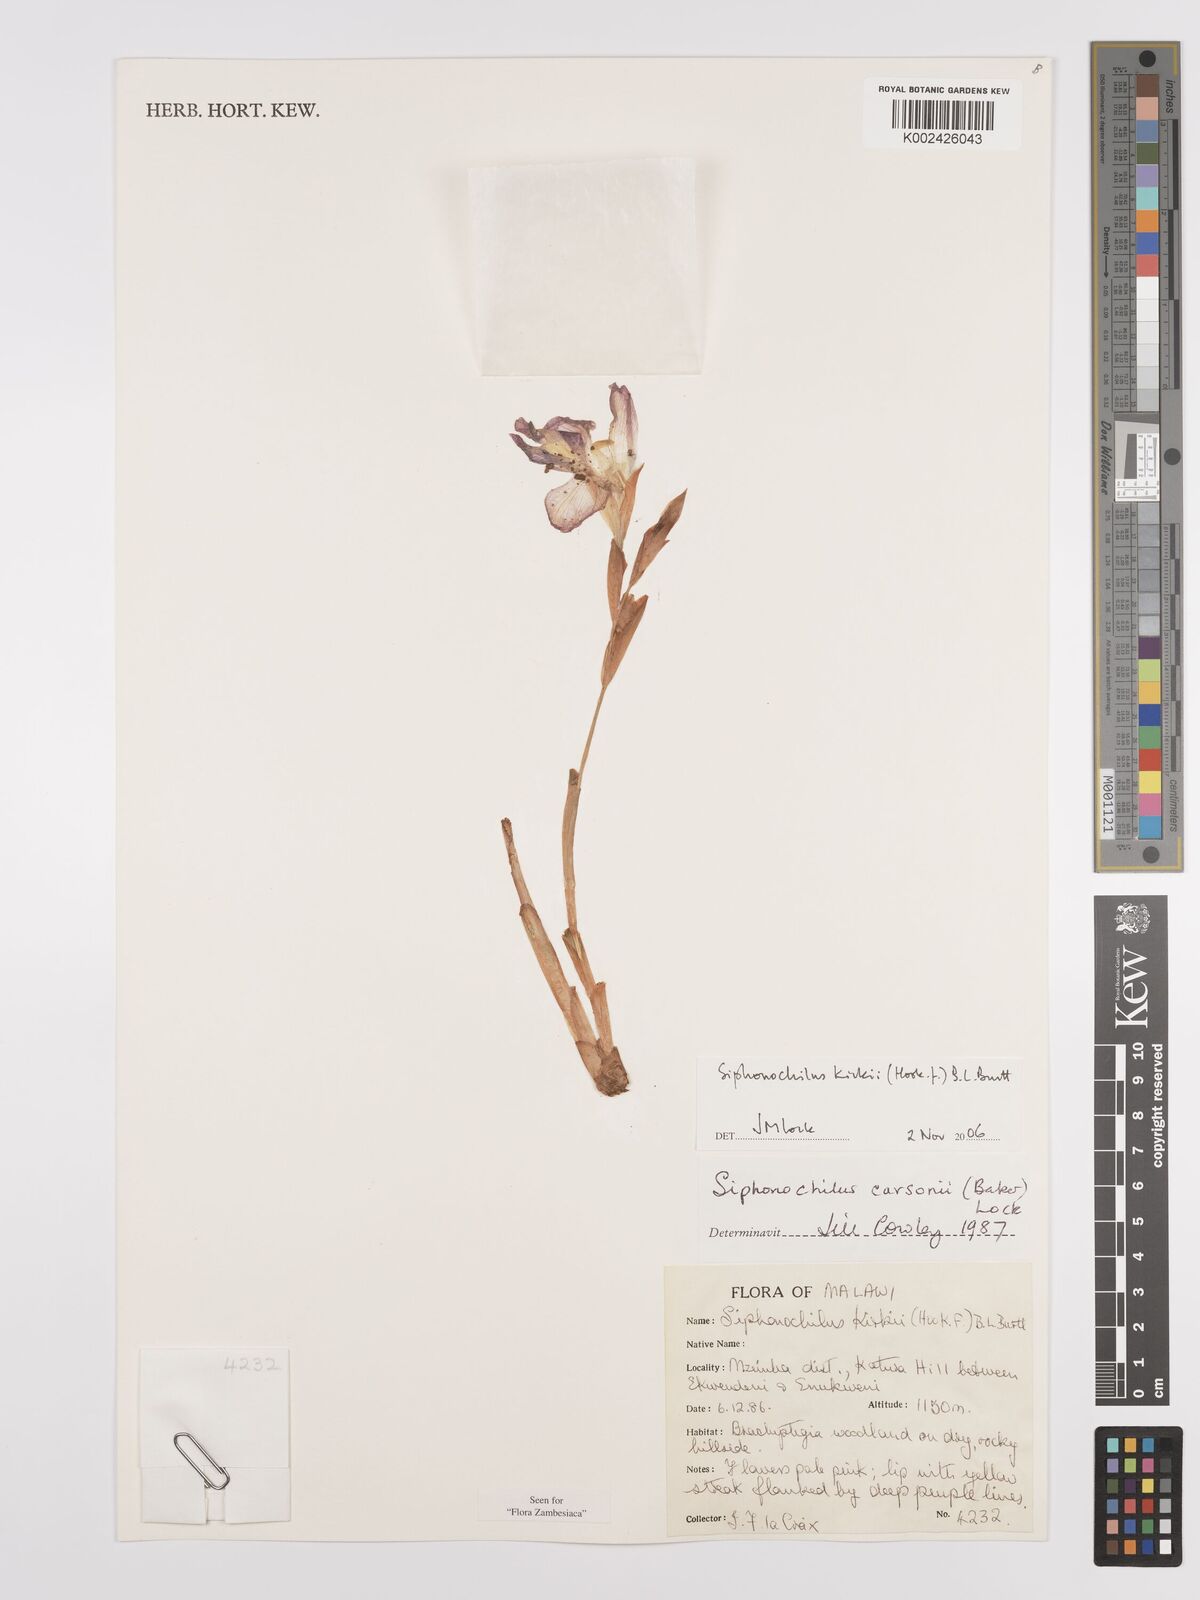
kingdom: Plantae
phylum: Tracheophyta
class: Liliopsida
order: Zingiberales
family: Zingiberaceae
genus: Siphonochilus
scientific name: Siphonochilus kirkii
